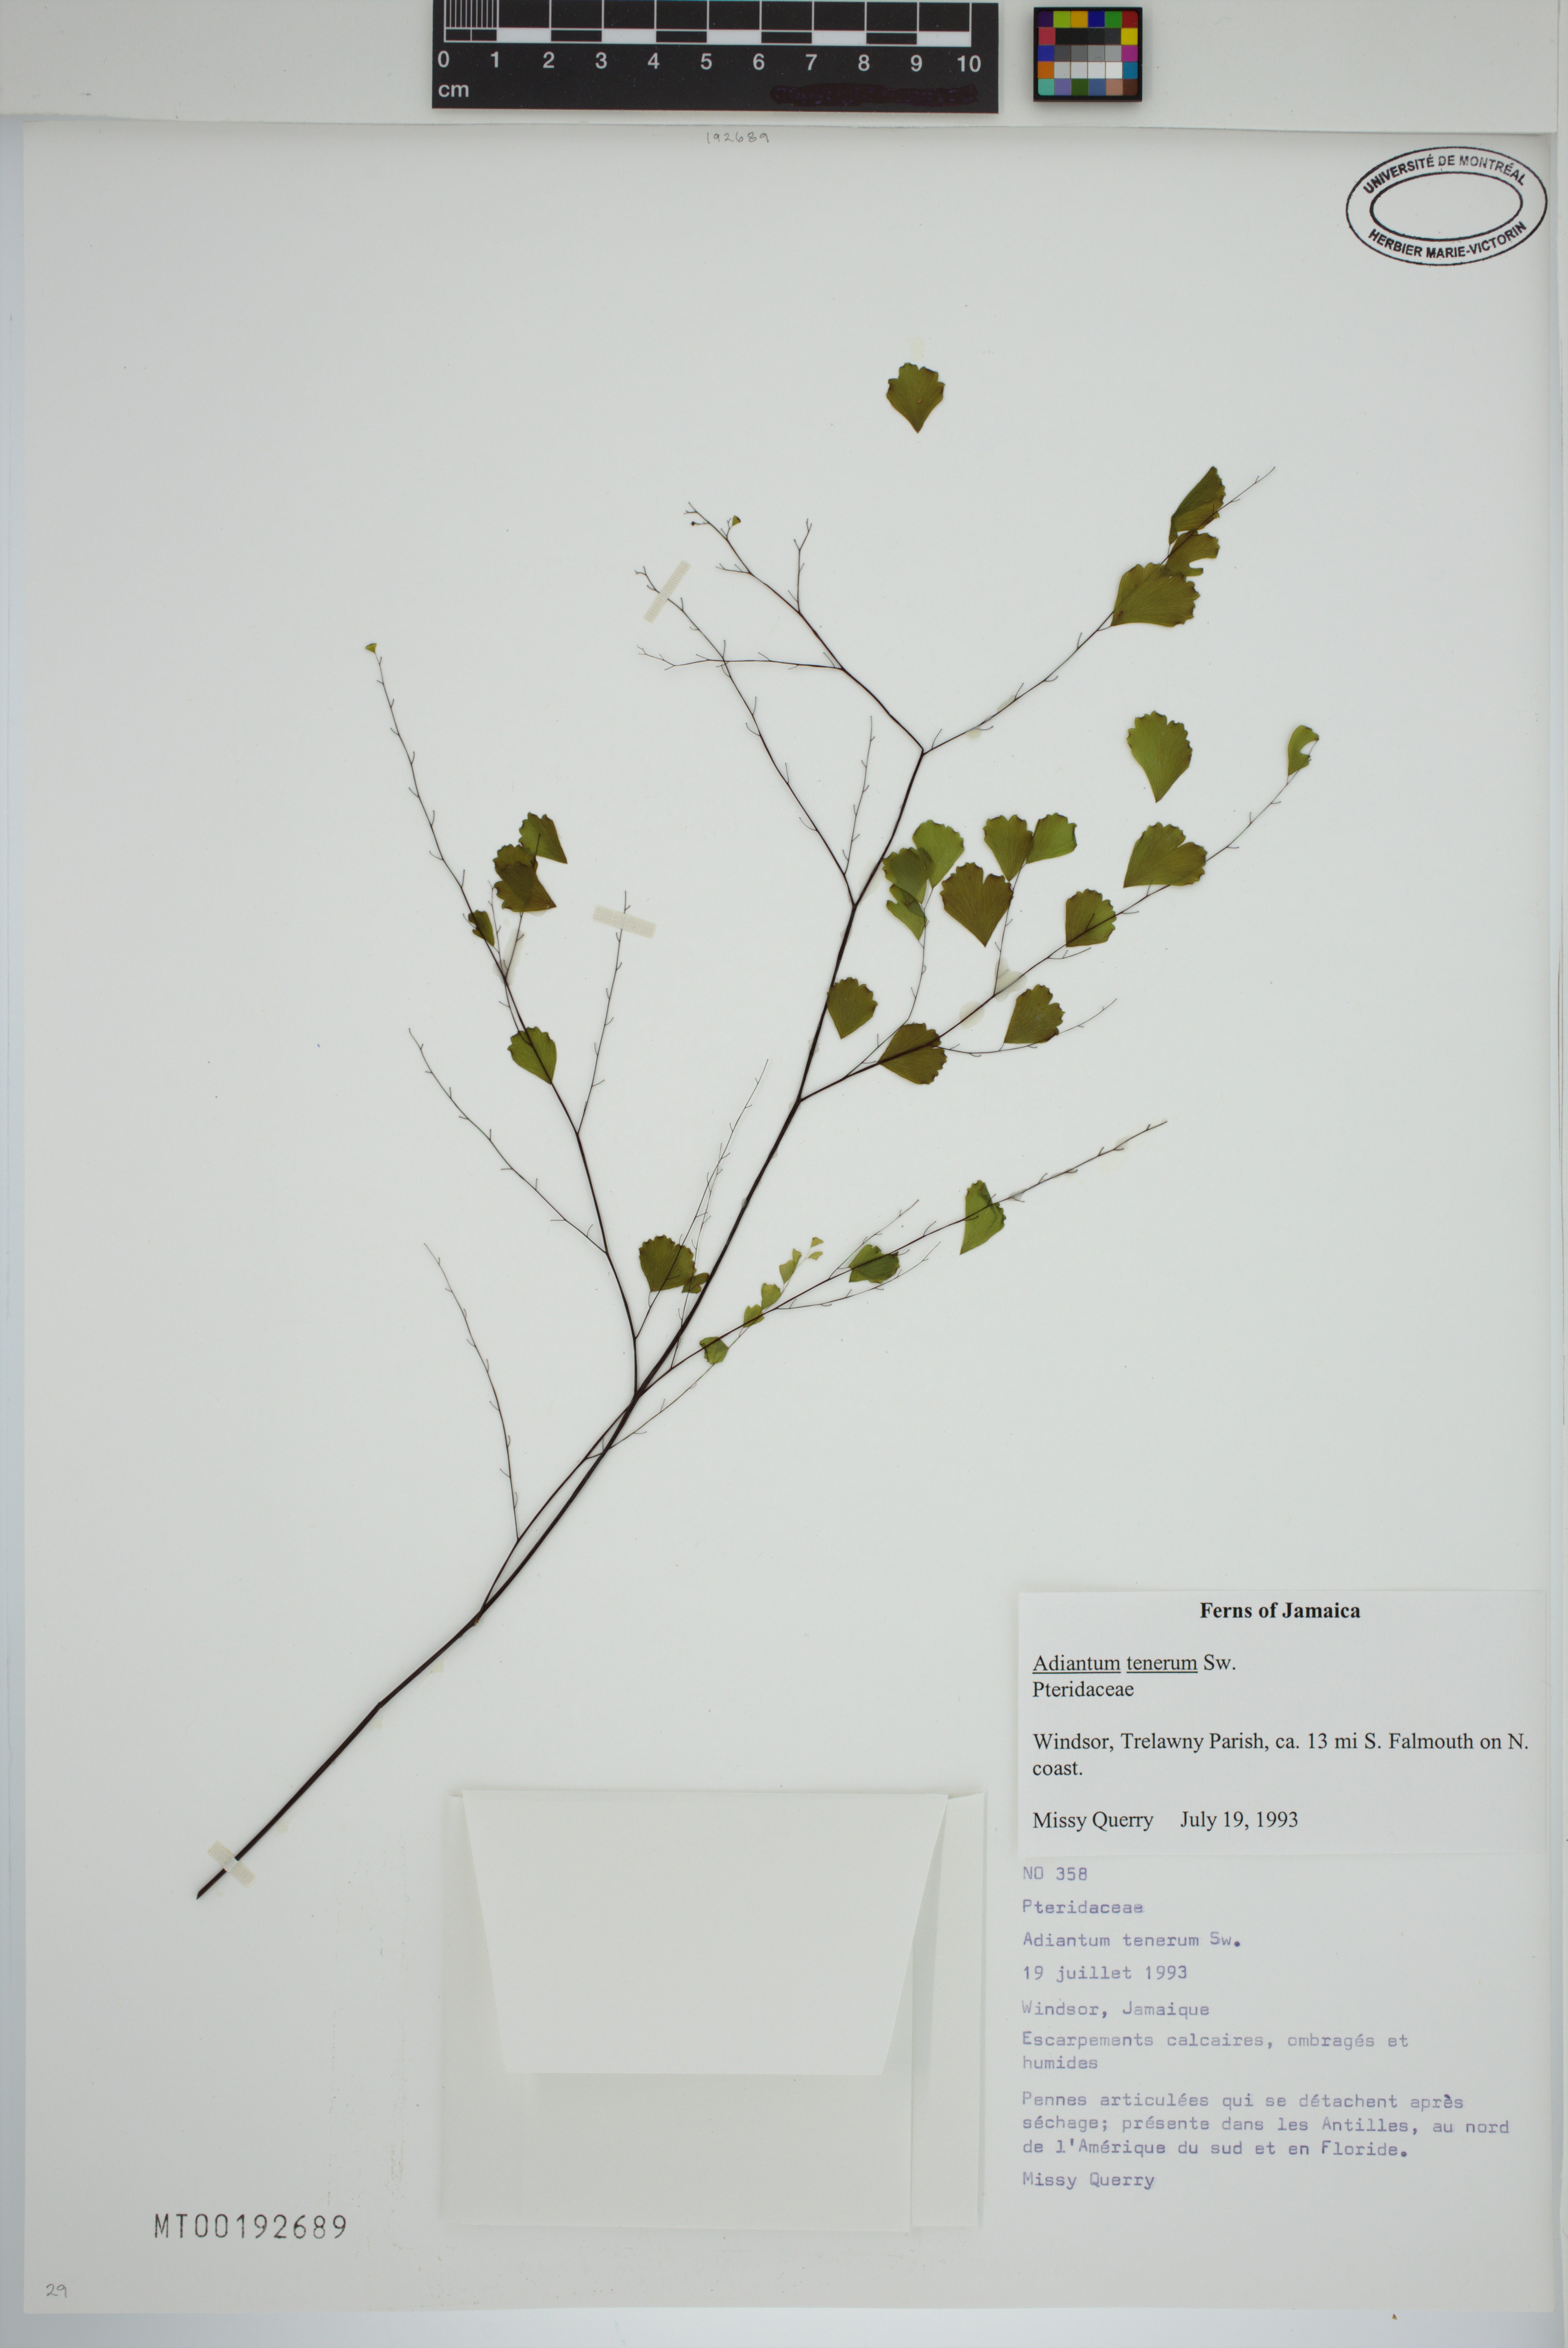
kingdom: Plantae
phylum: Tracheophyta
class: Polypodiopsida
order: Polypodiales
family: Pteridaceae
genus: Adiantum
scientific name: Adiantum tenerum
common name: Fan maidenhair
